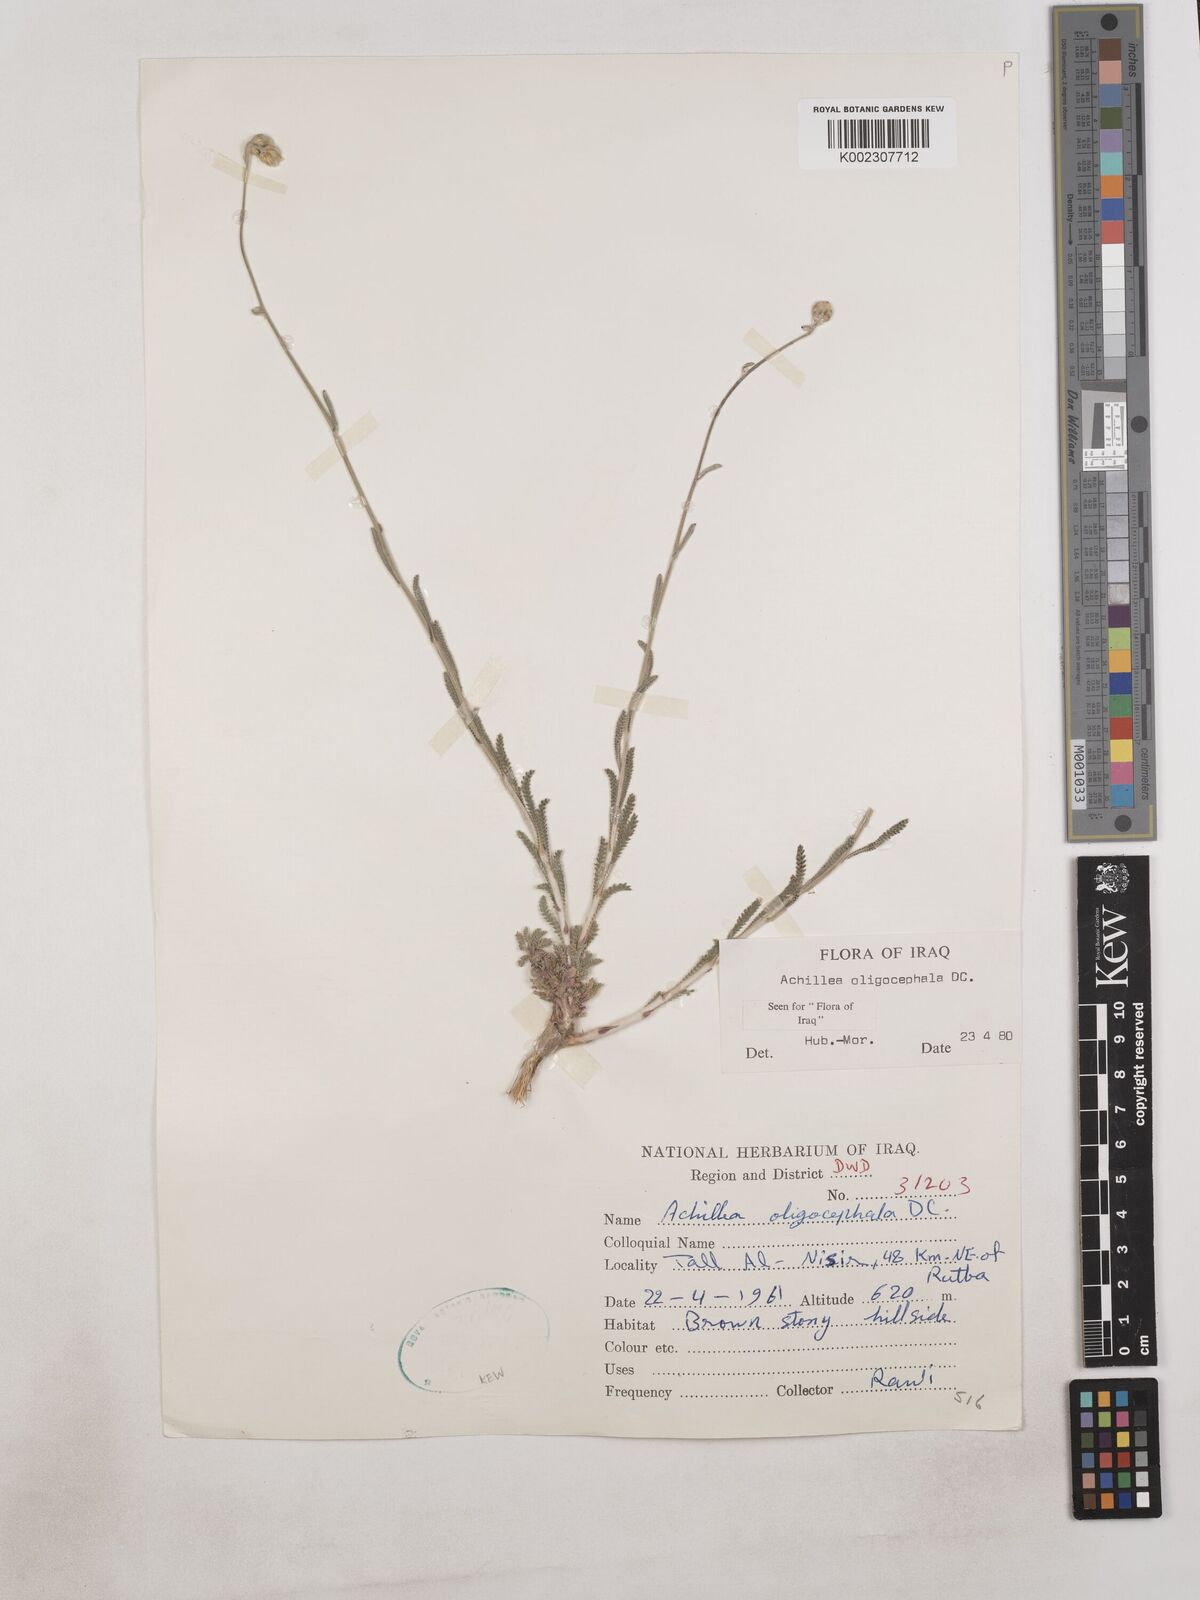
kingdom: Plantae
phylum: Tracheophyta
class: Magnoliopsida
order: Asterales
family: Asteraceae
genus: Achillea
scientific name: Achillea oligocephala
